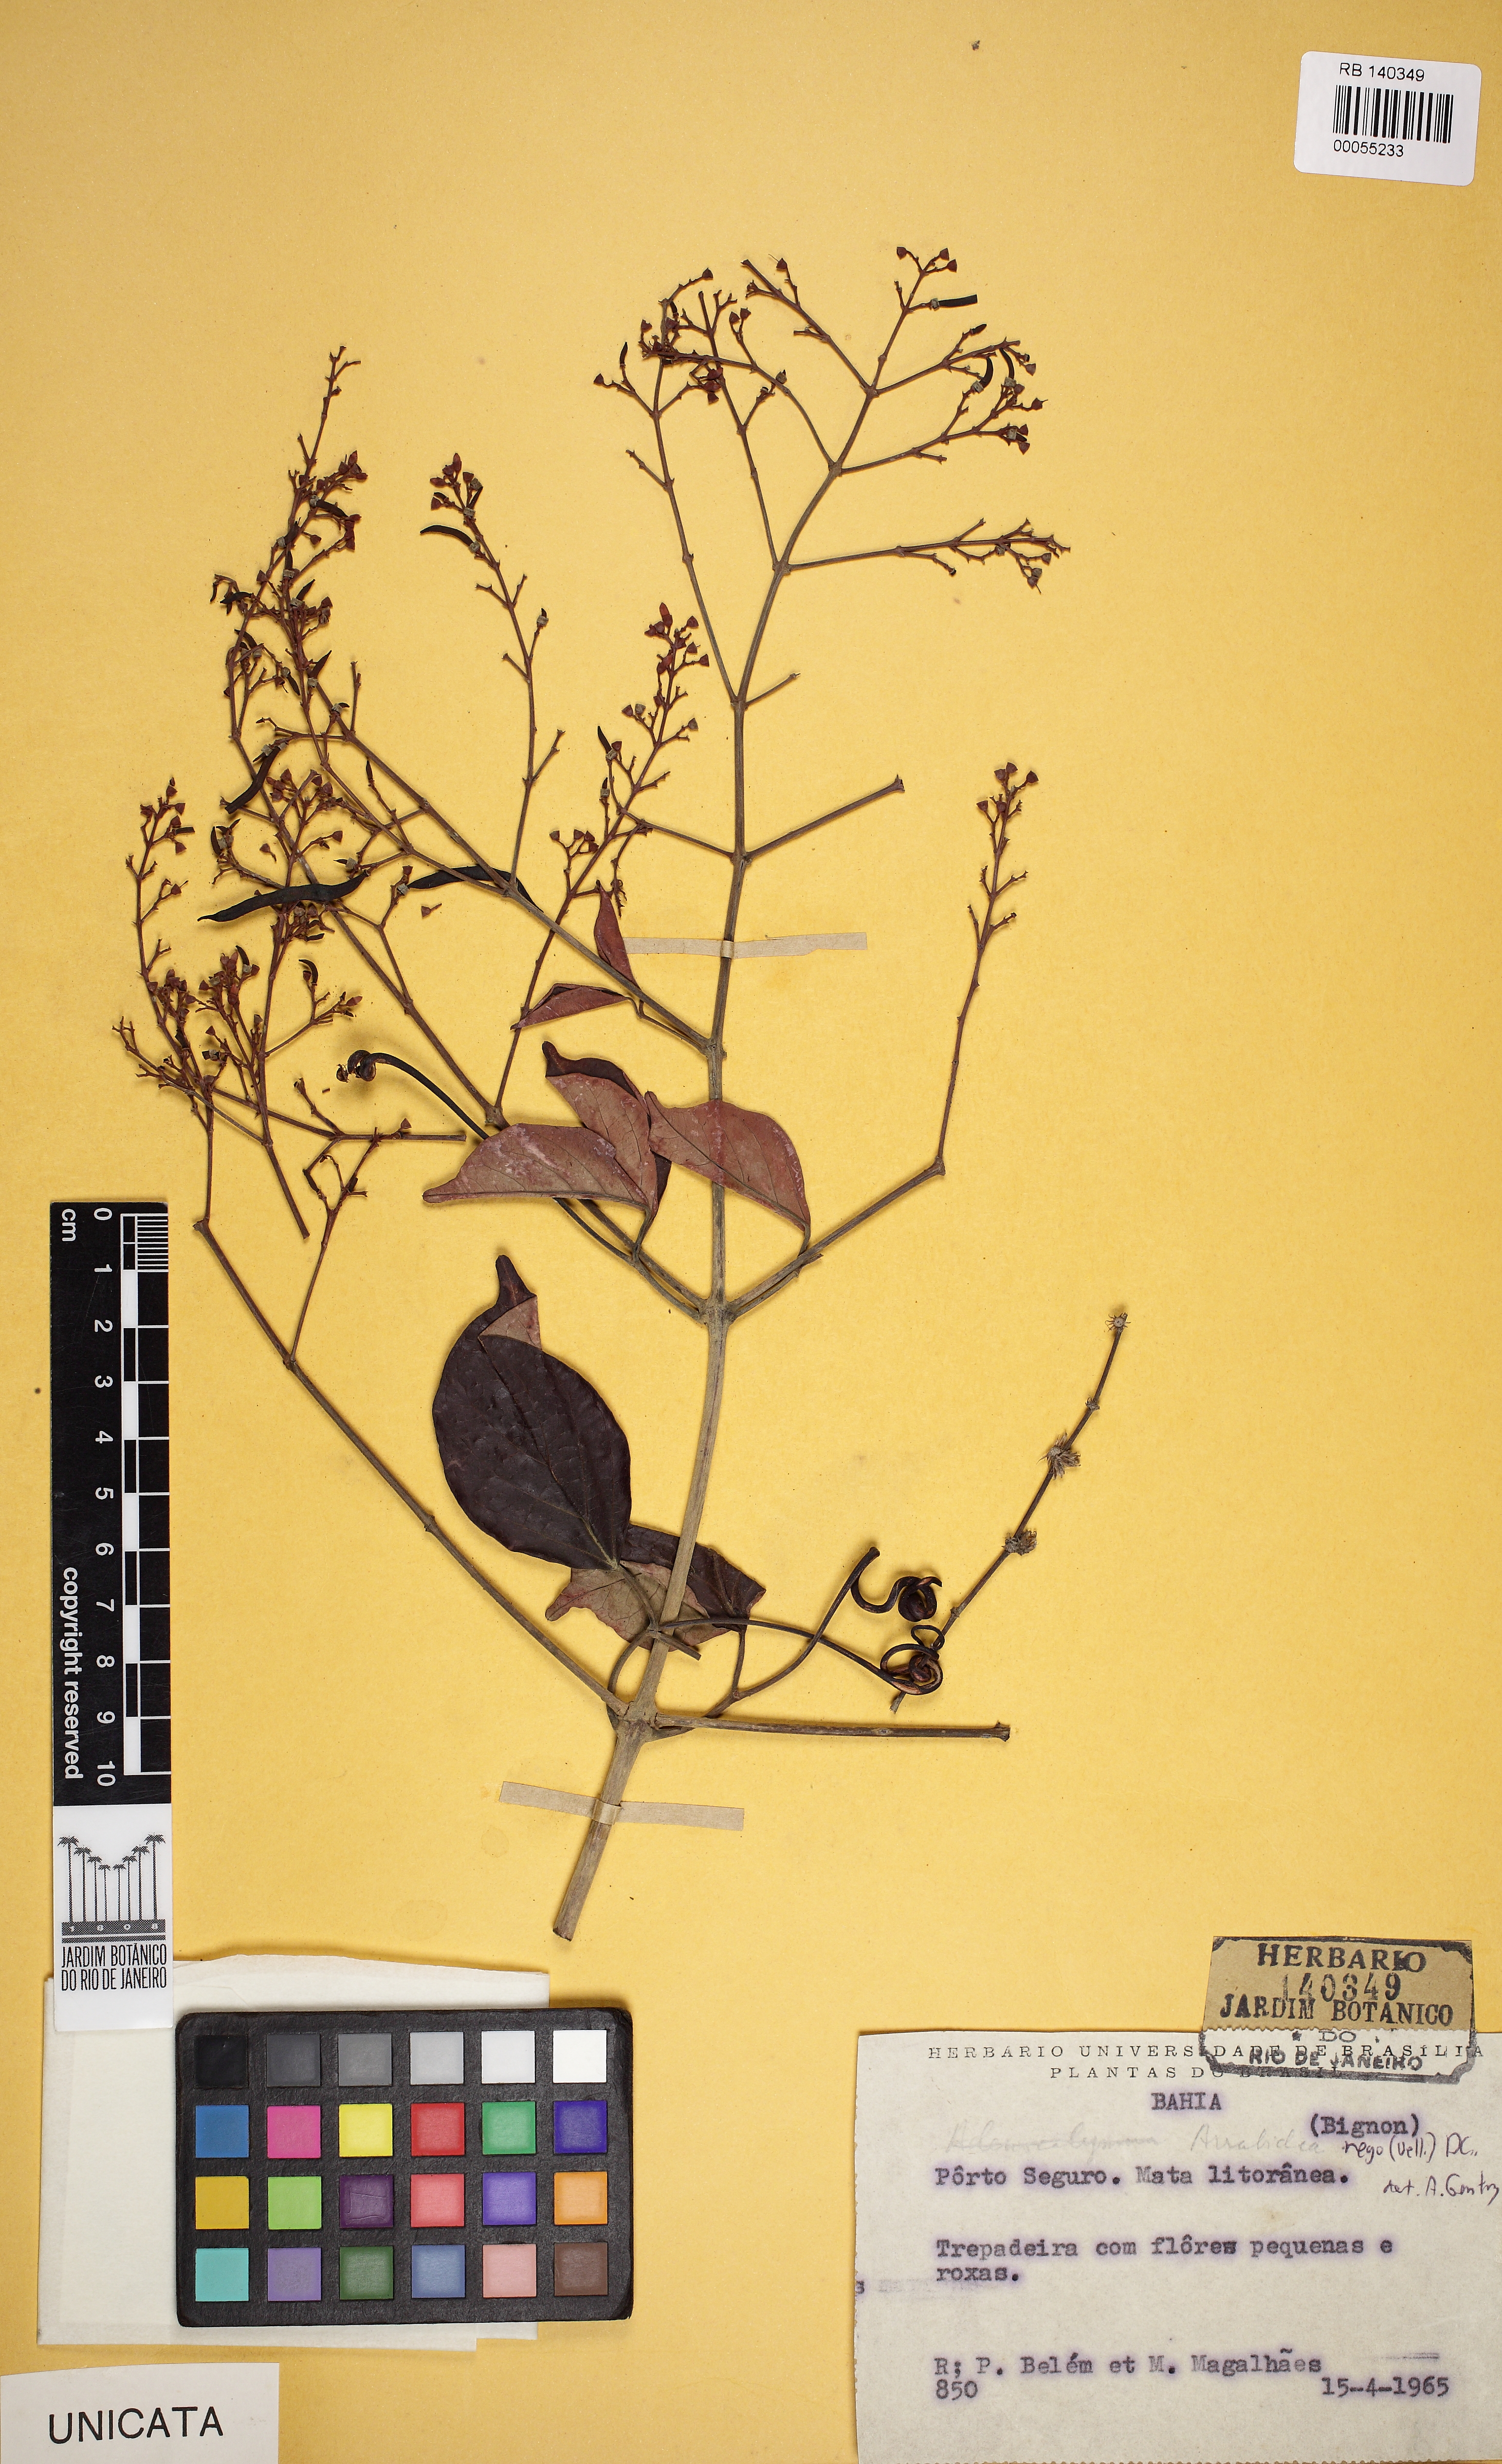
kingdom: Plantae
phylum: Tracheophyta
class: Magnoliopsida
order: Lamiales
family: Bignoniaceae
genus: Fridericia
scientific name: Fridericia rego
